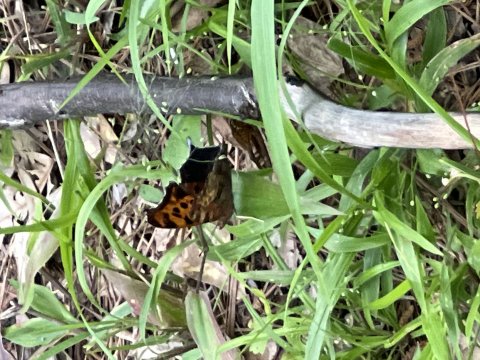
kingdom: Animalia
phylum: Arthropoda
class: Insecta
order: Lepidoptera
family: Nymphalidae
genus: Polygonia
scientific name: Polygonia interrogationis
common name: Question Mark
